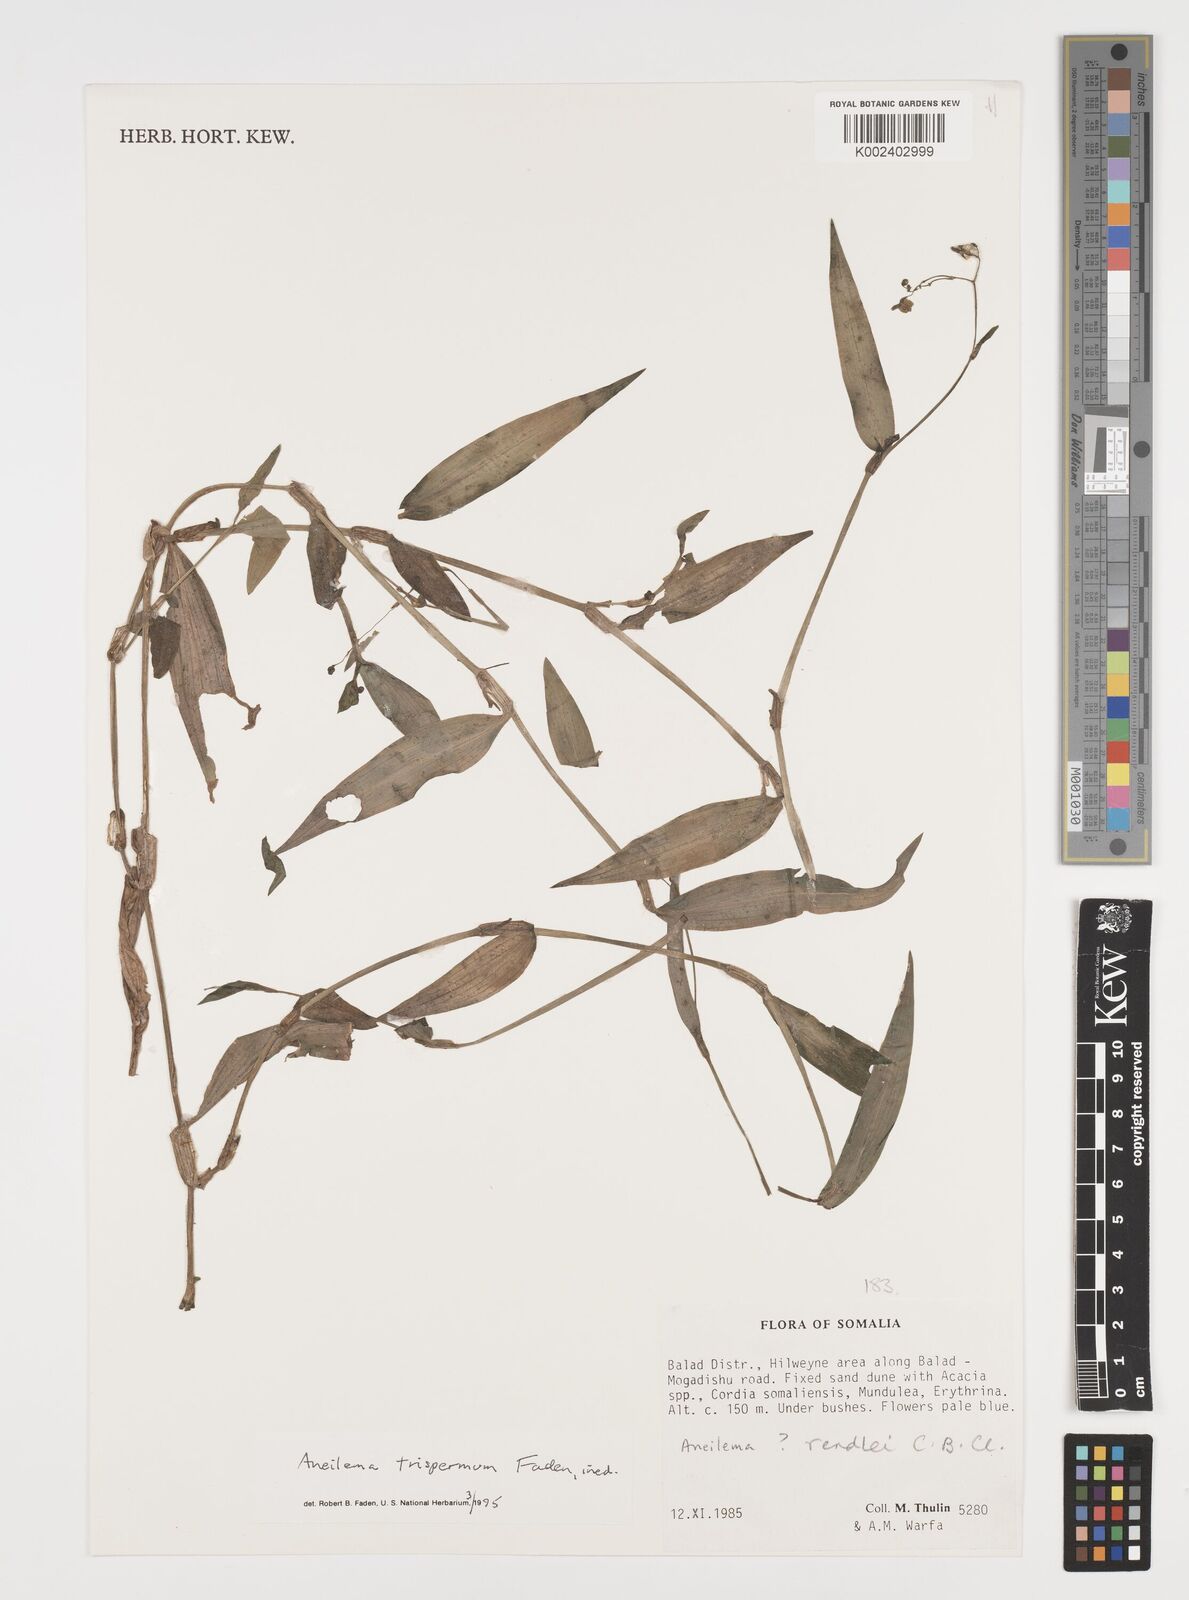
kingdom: Plantae
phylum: Tracheophyta
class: Liliopsida
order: Commelinales
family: Commelinaceae
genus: Aneilema
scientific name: Aneilema trispermum
